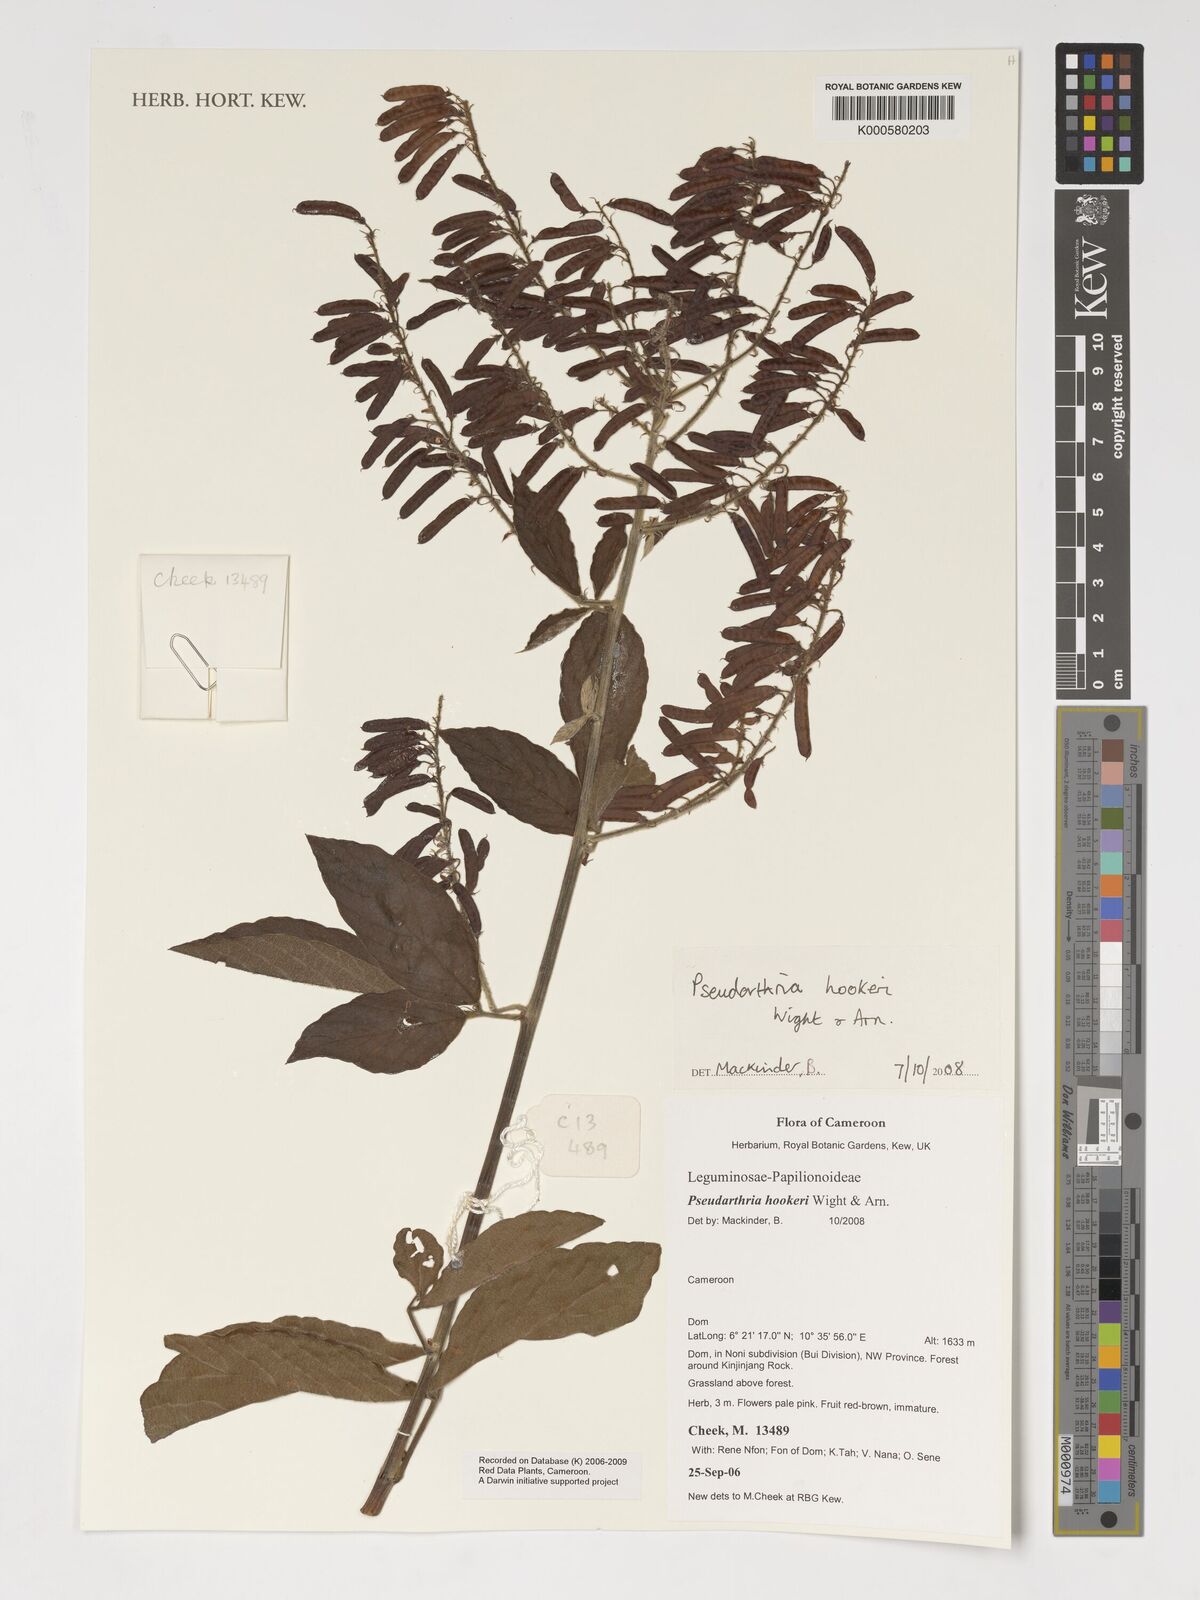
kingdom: Plantae
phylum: Tracheophyta
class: Magnoliopsida
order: Fabales
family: Fabaceae
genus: Pseudarthria
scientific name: Pseudarthria hookeri
